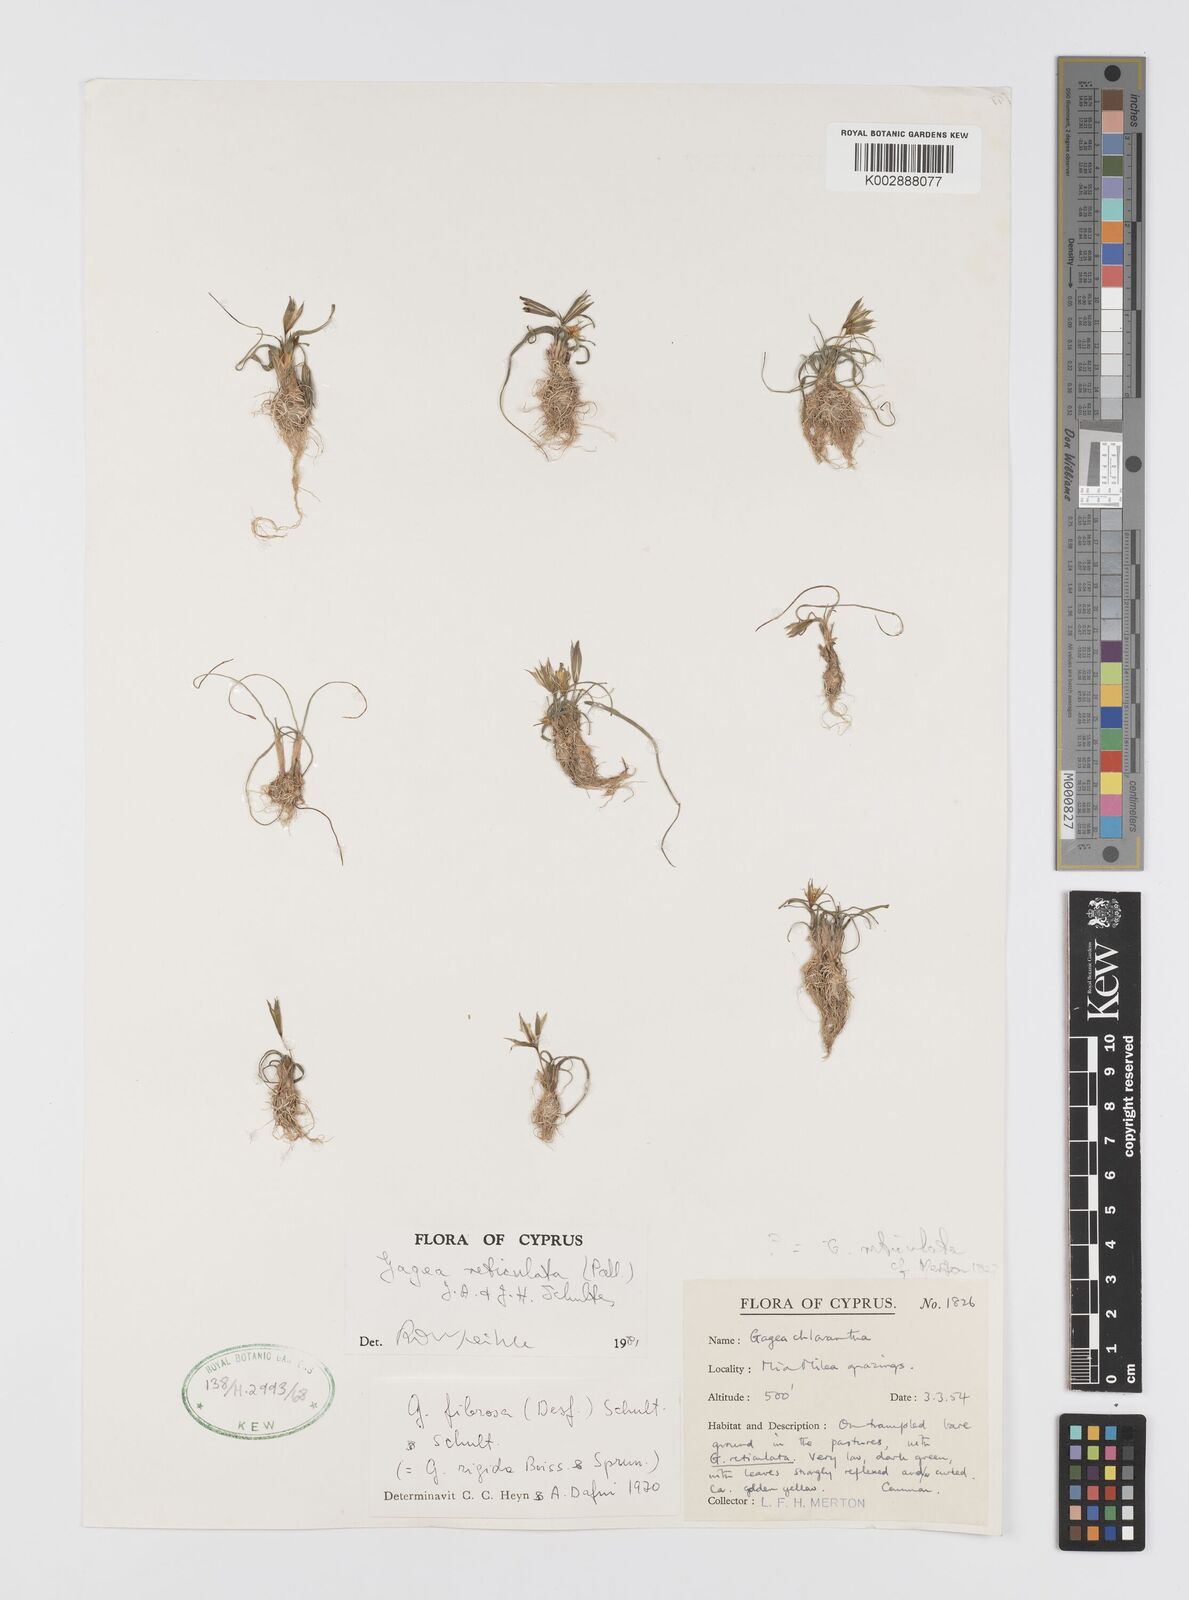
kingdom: Plantae
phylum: Tracheophyta
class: Liliopsida
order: Liliales
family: Liliaceae
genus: Gagea
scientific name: Gagea reticulata
